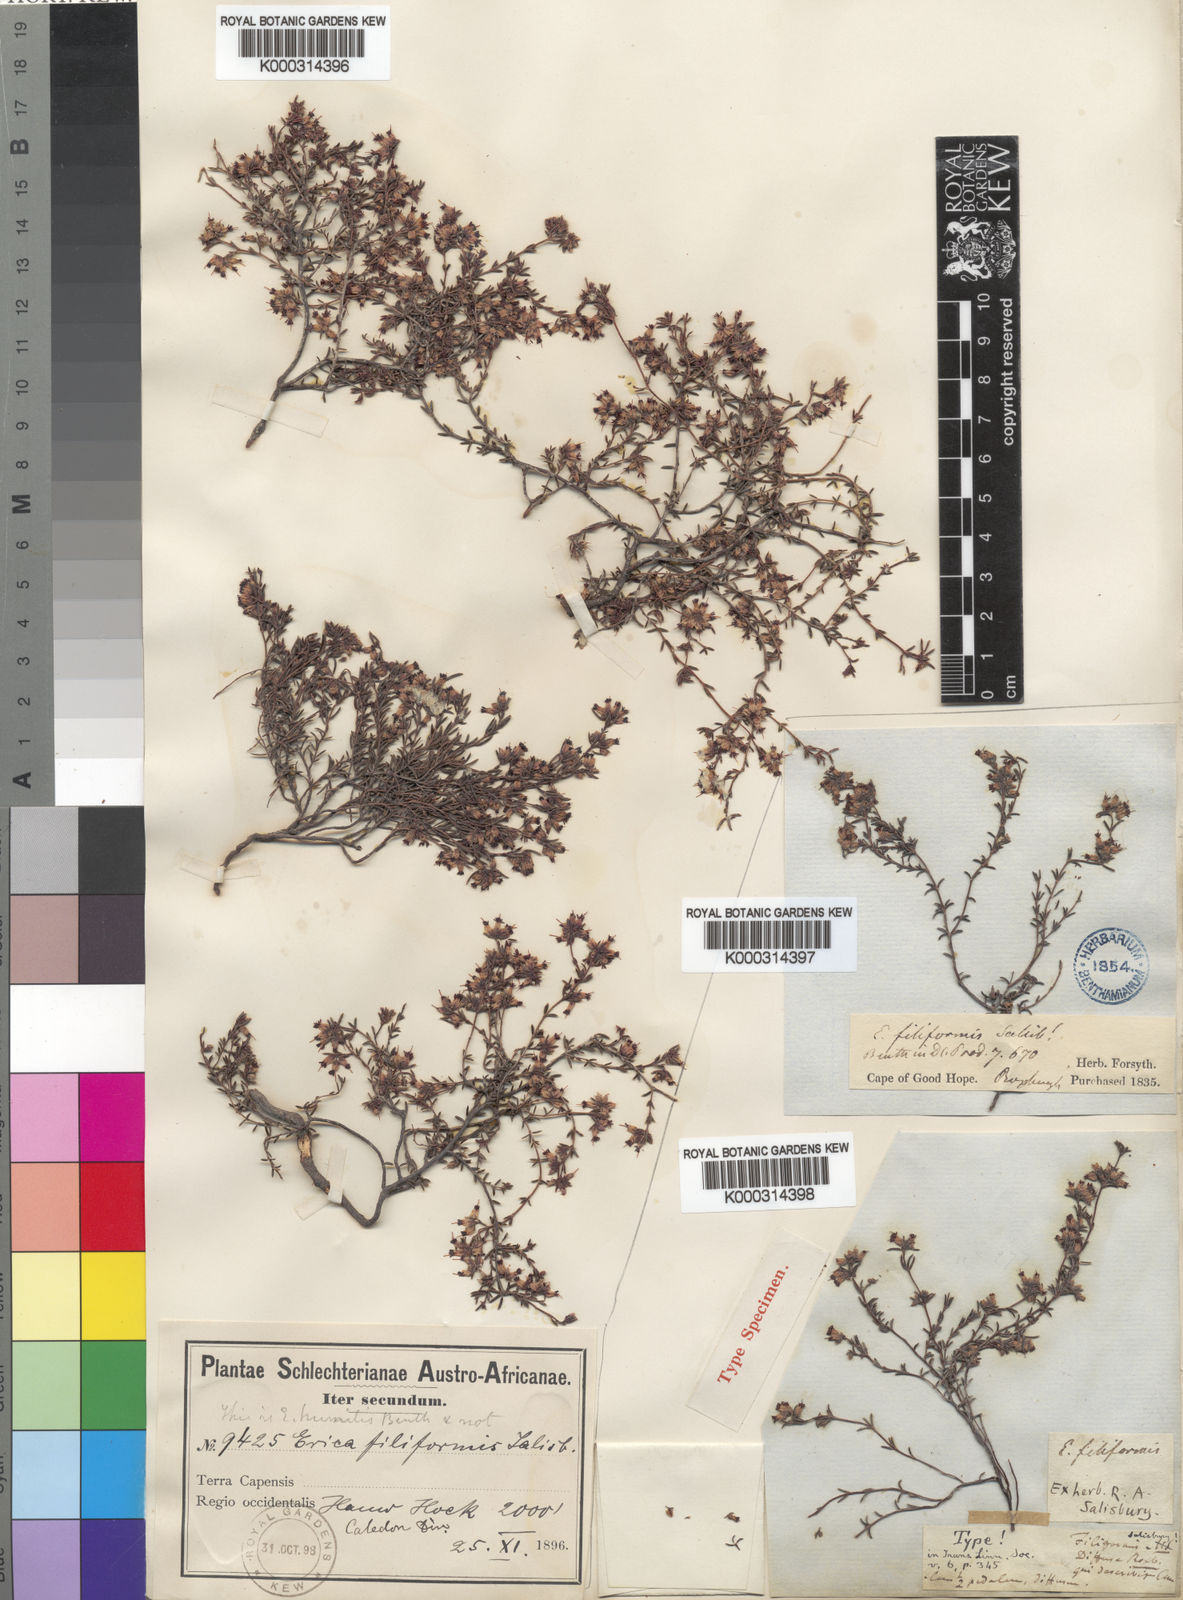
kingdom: Plantae
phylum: Tracheophyta
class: Magnoliopsida
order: Ericales
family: Ericaceae
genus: Erica
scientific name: Erica filiformis
